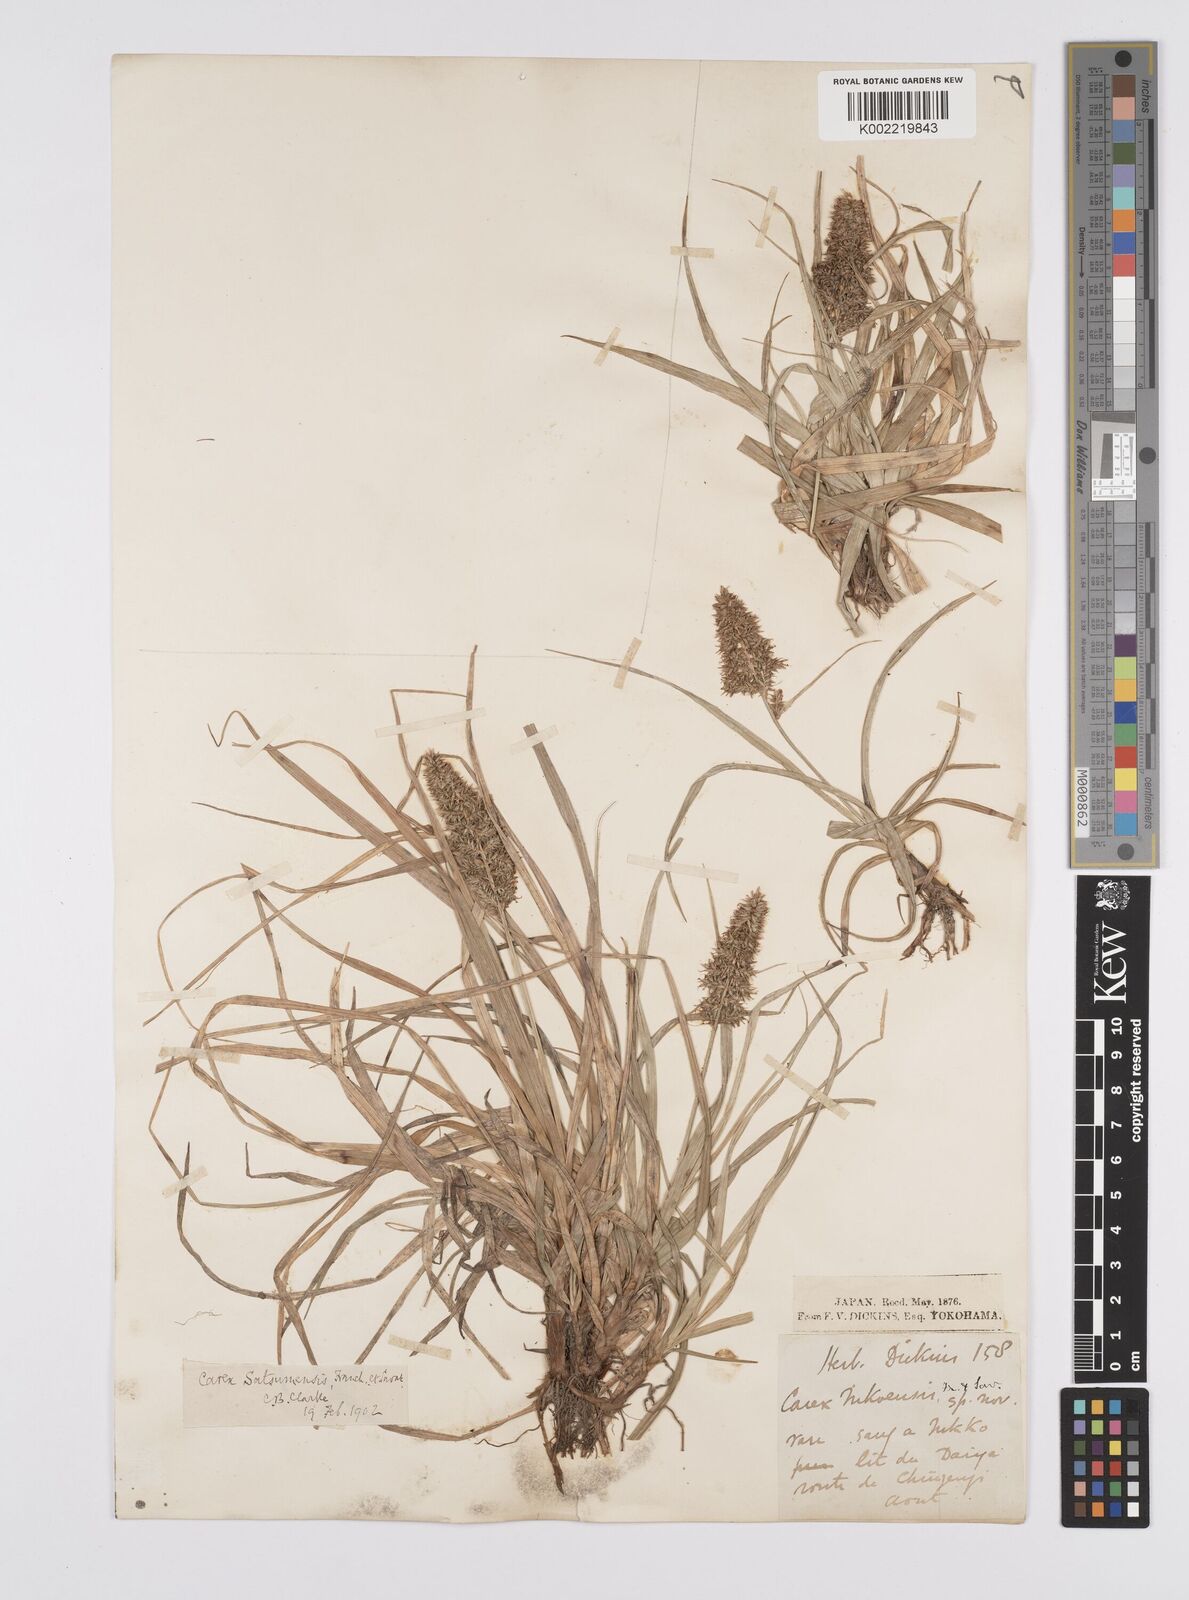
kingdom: Plantae
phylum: Tracheophyta
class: Liliopsida
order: Poales
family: Cyperaceae
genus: Carex
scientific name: Carex satsumensis
